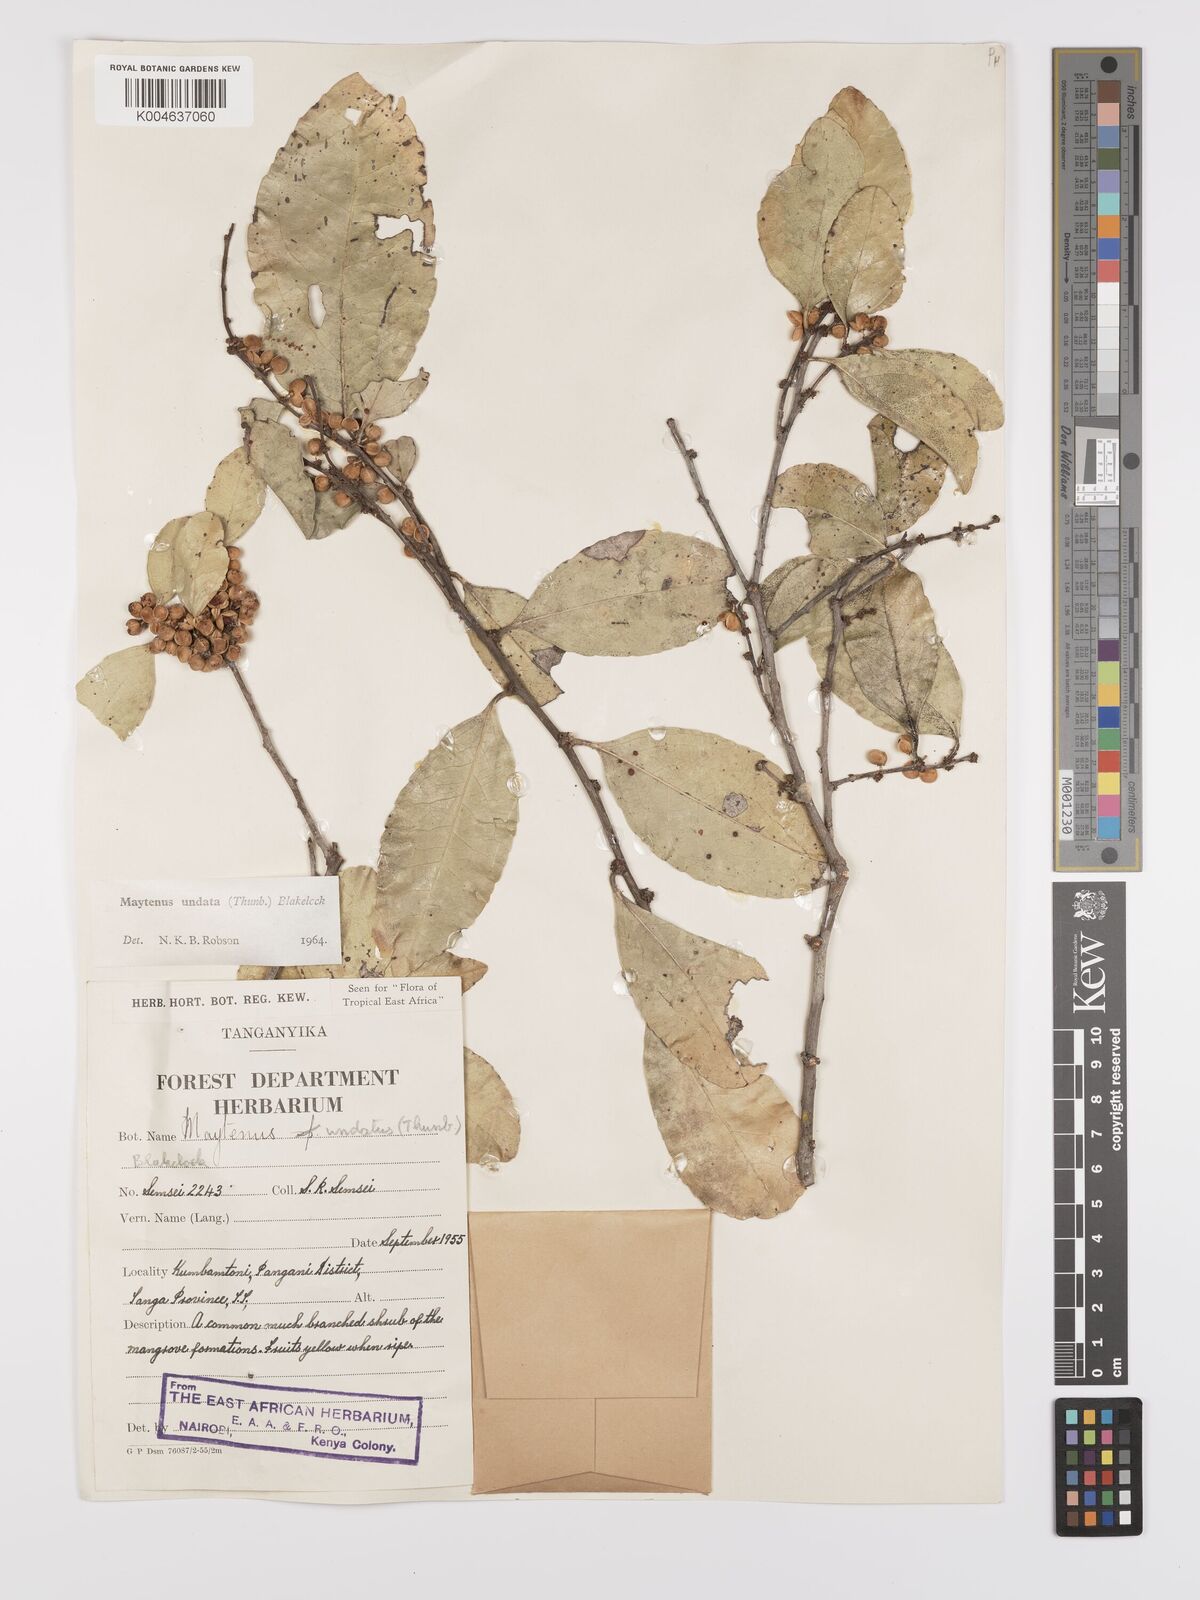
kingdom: Plantae
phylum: Tracheophyta
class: Magnoliopsida
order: Celastrales
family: Celastraceae
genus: Gymnosporia
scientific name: Gymnosporia undata
